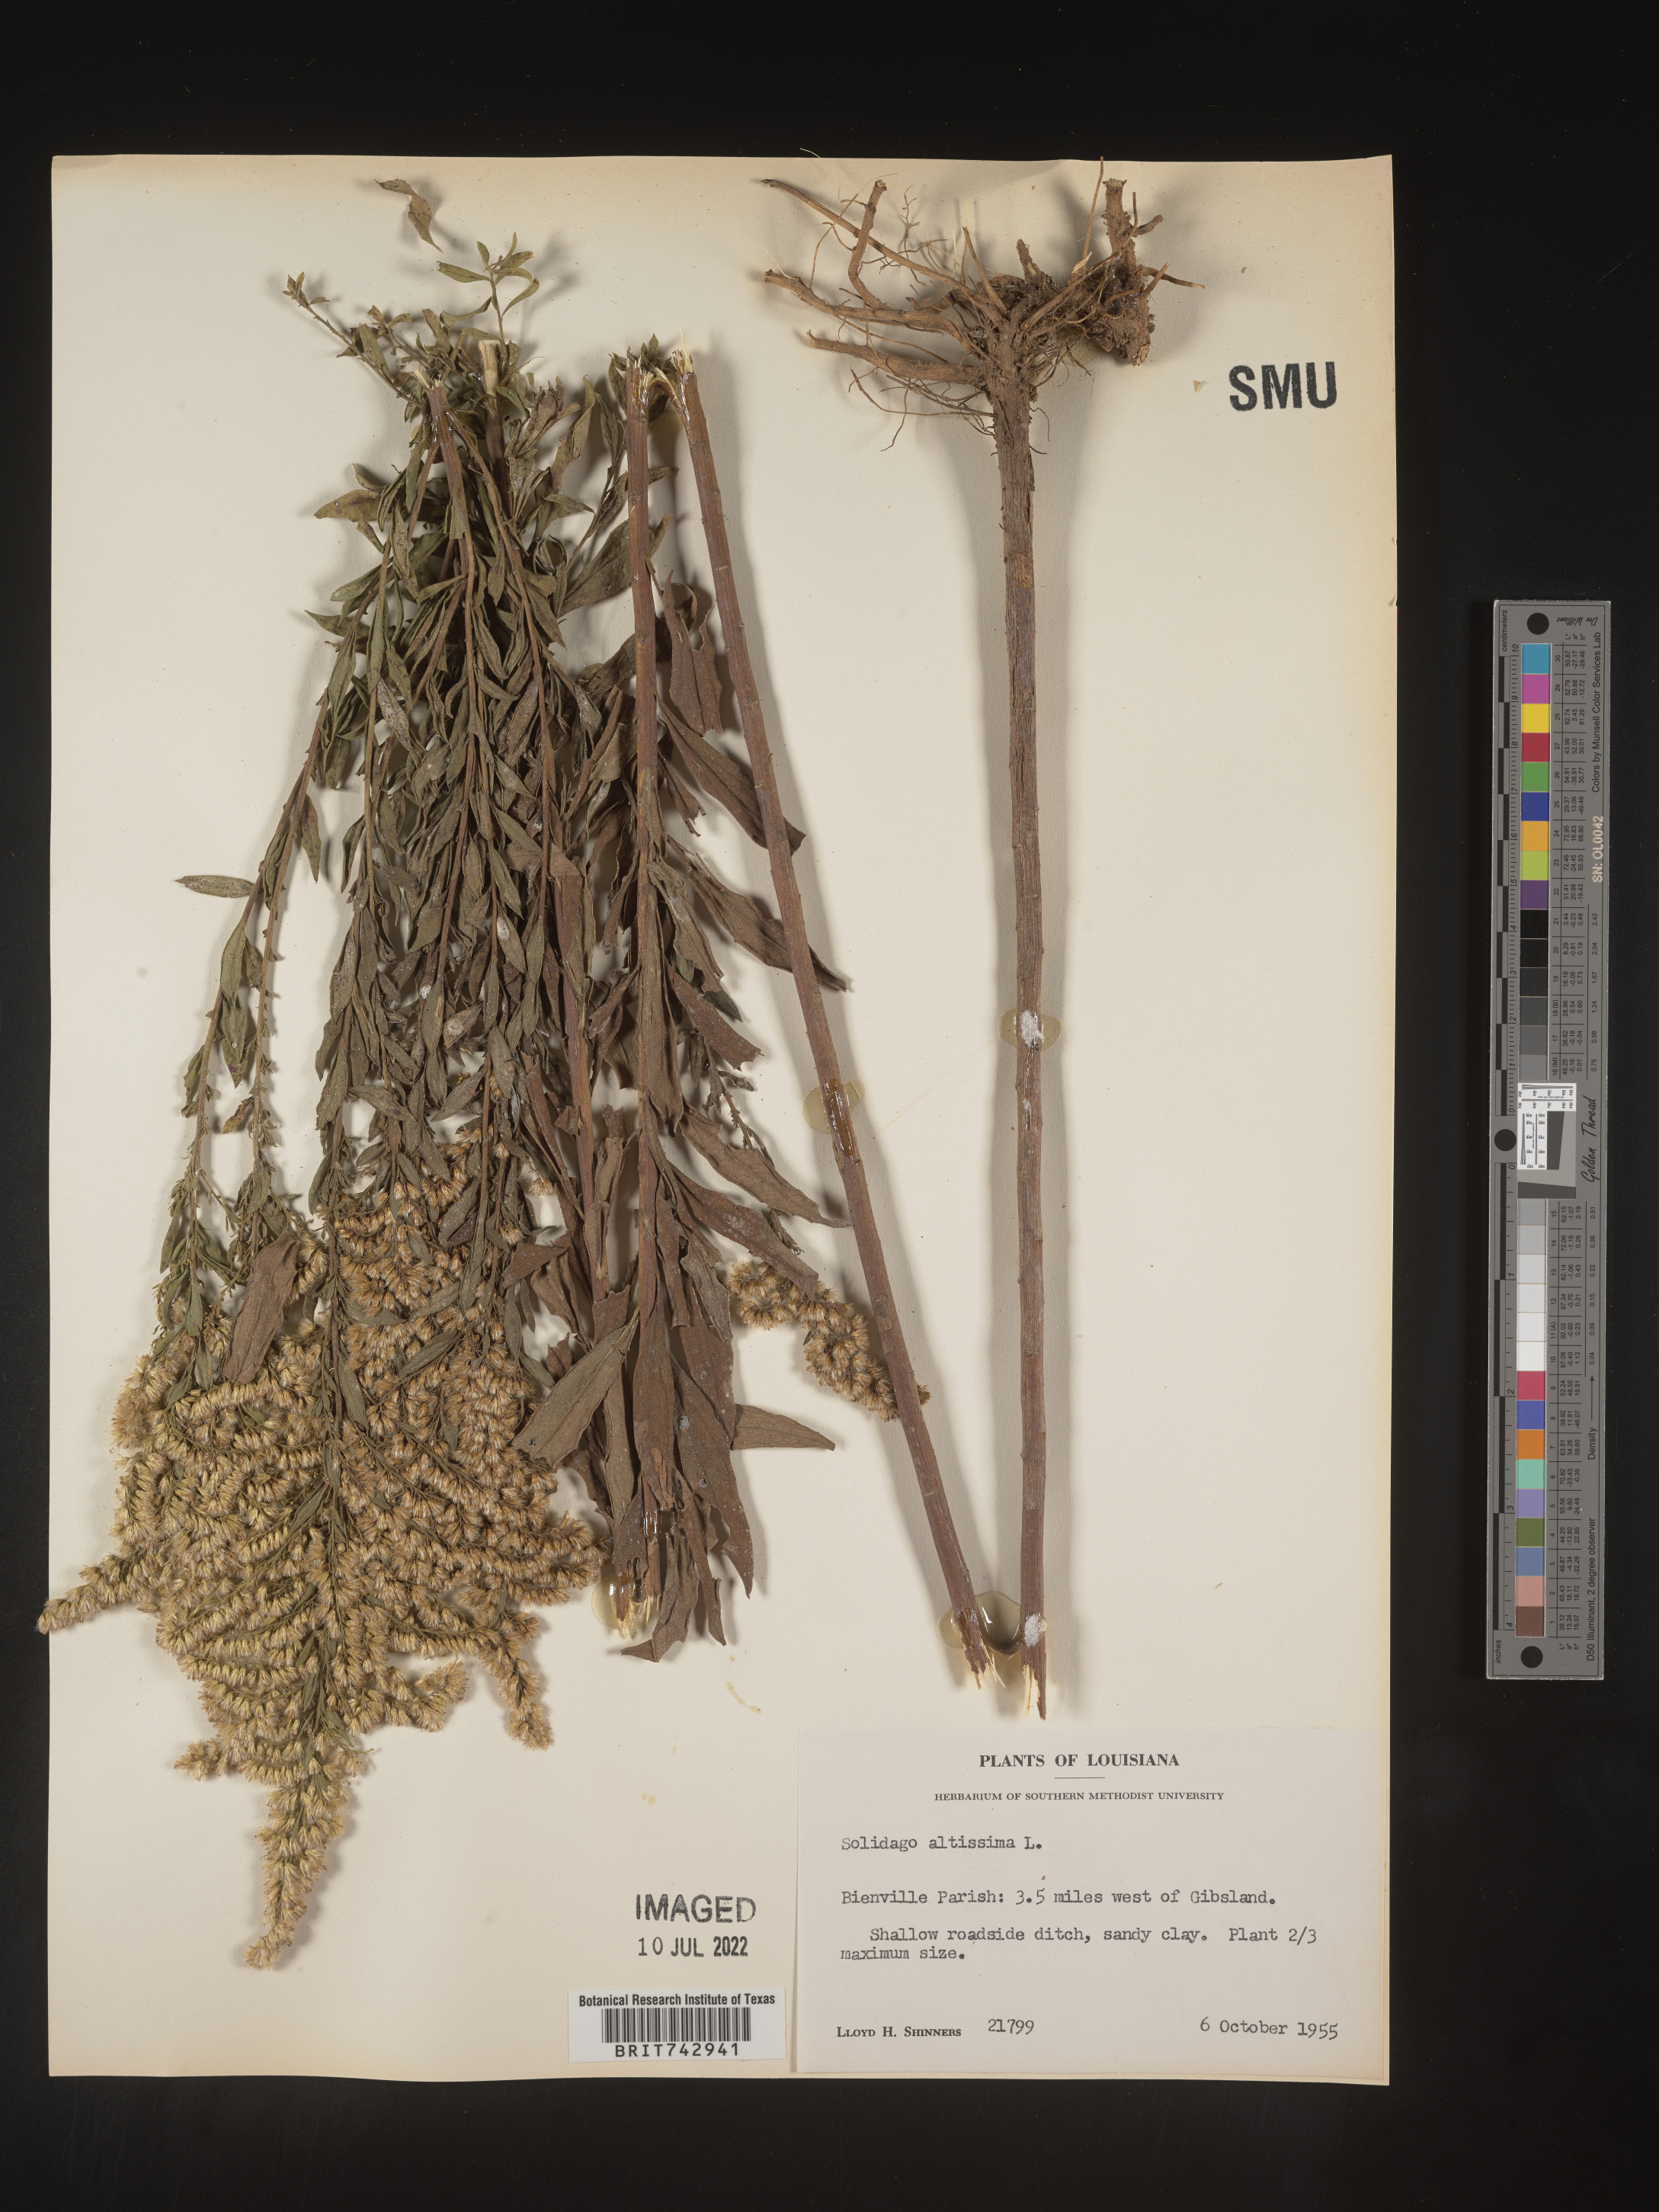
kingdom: Plantae
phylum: Tracheophyta
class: Magnoliopsida
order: Asterales
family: Asteraceae
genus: Solidago
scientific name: Solidago altissima
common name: Late goldenrod
